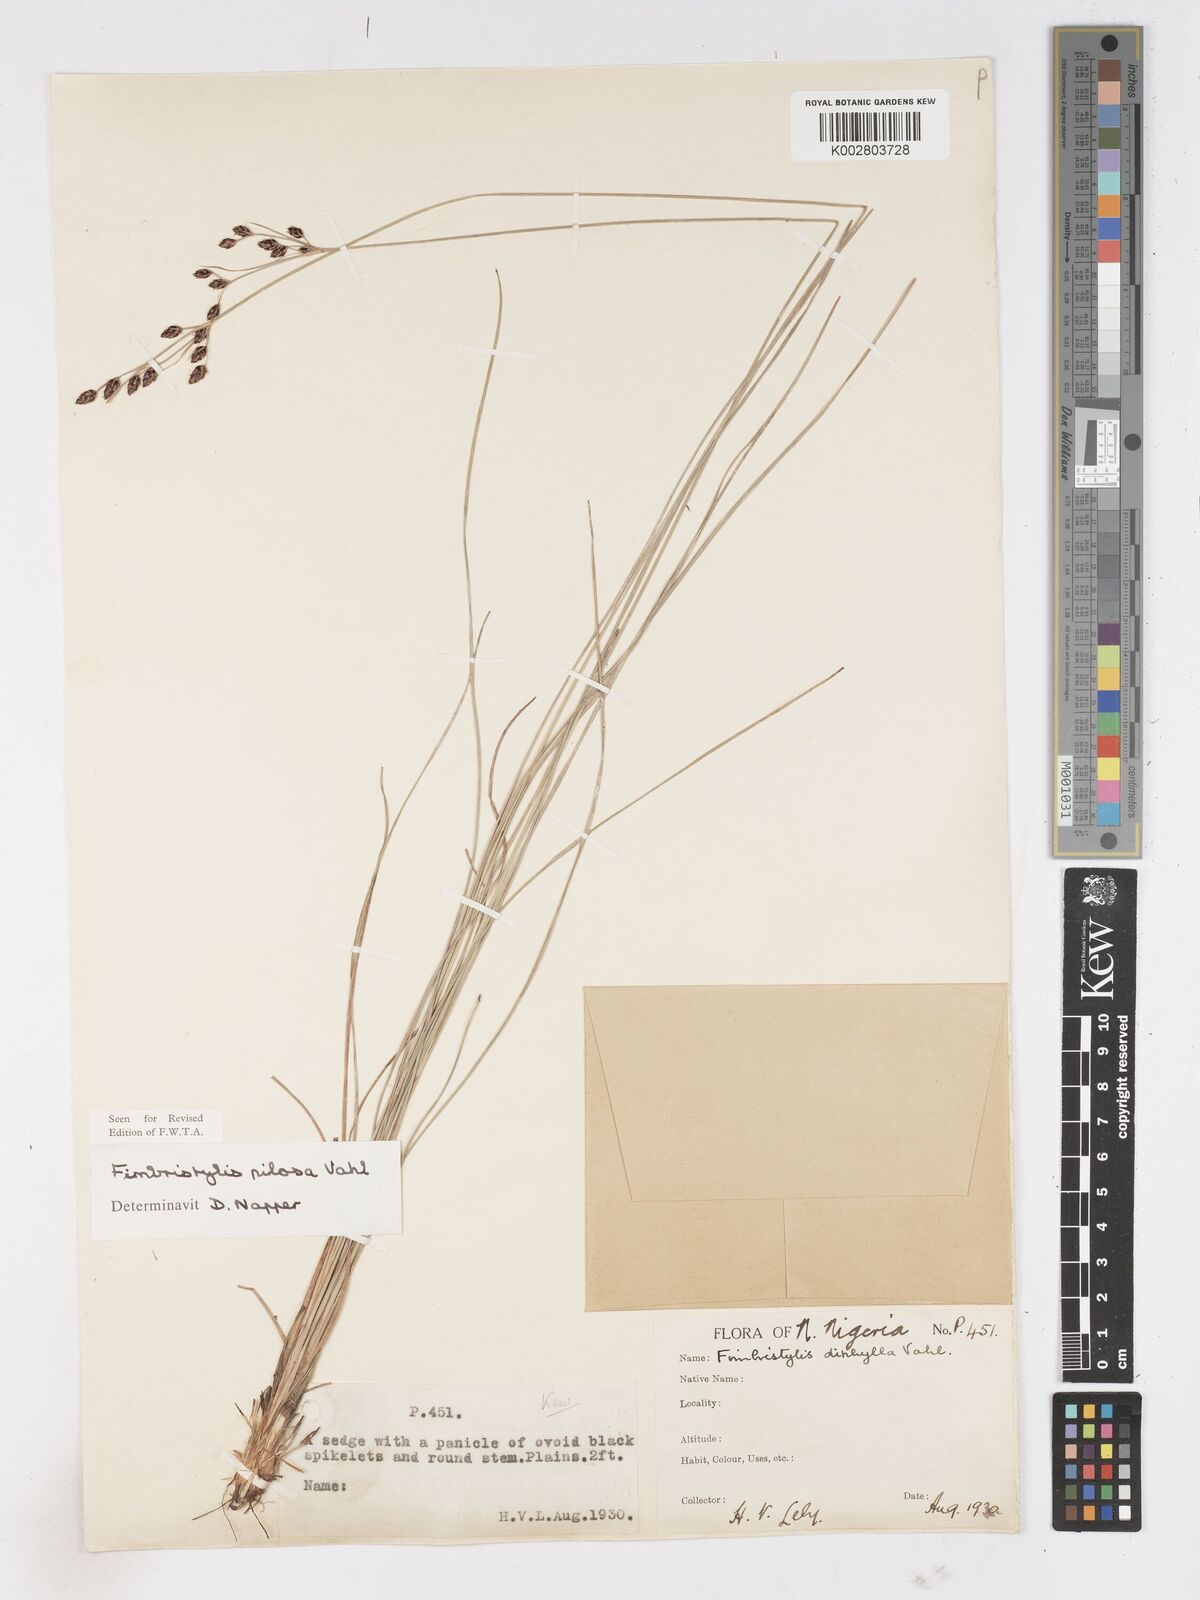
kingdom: Plantae
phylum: Tracheophyta
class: Liliopsida
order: Poales
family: Cyperaceae
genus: Fimbristylis
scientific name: Fimbristylis pilosa
